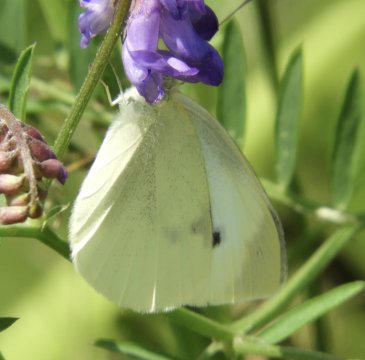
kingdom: Animalia
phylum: Arthropoda
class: Insecta
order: Lepidoptera
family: Pieridae
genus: Pieris
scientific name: Pieris rapae
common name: Cabbage White
